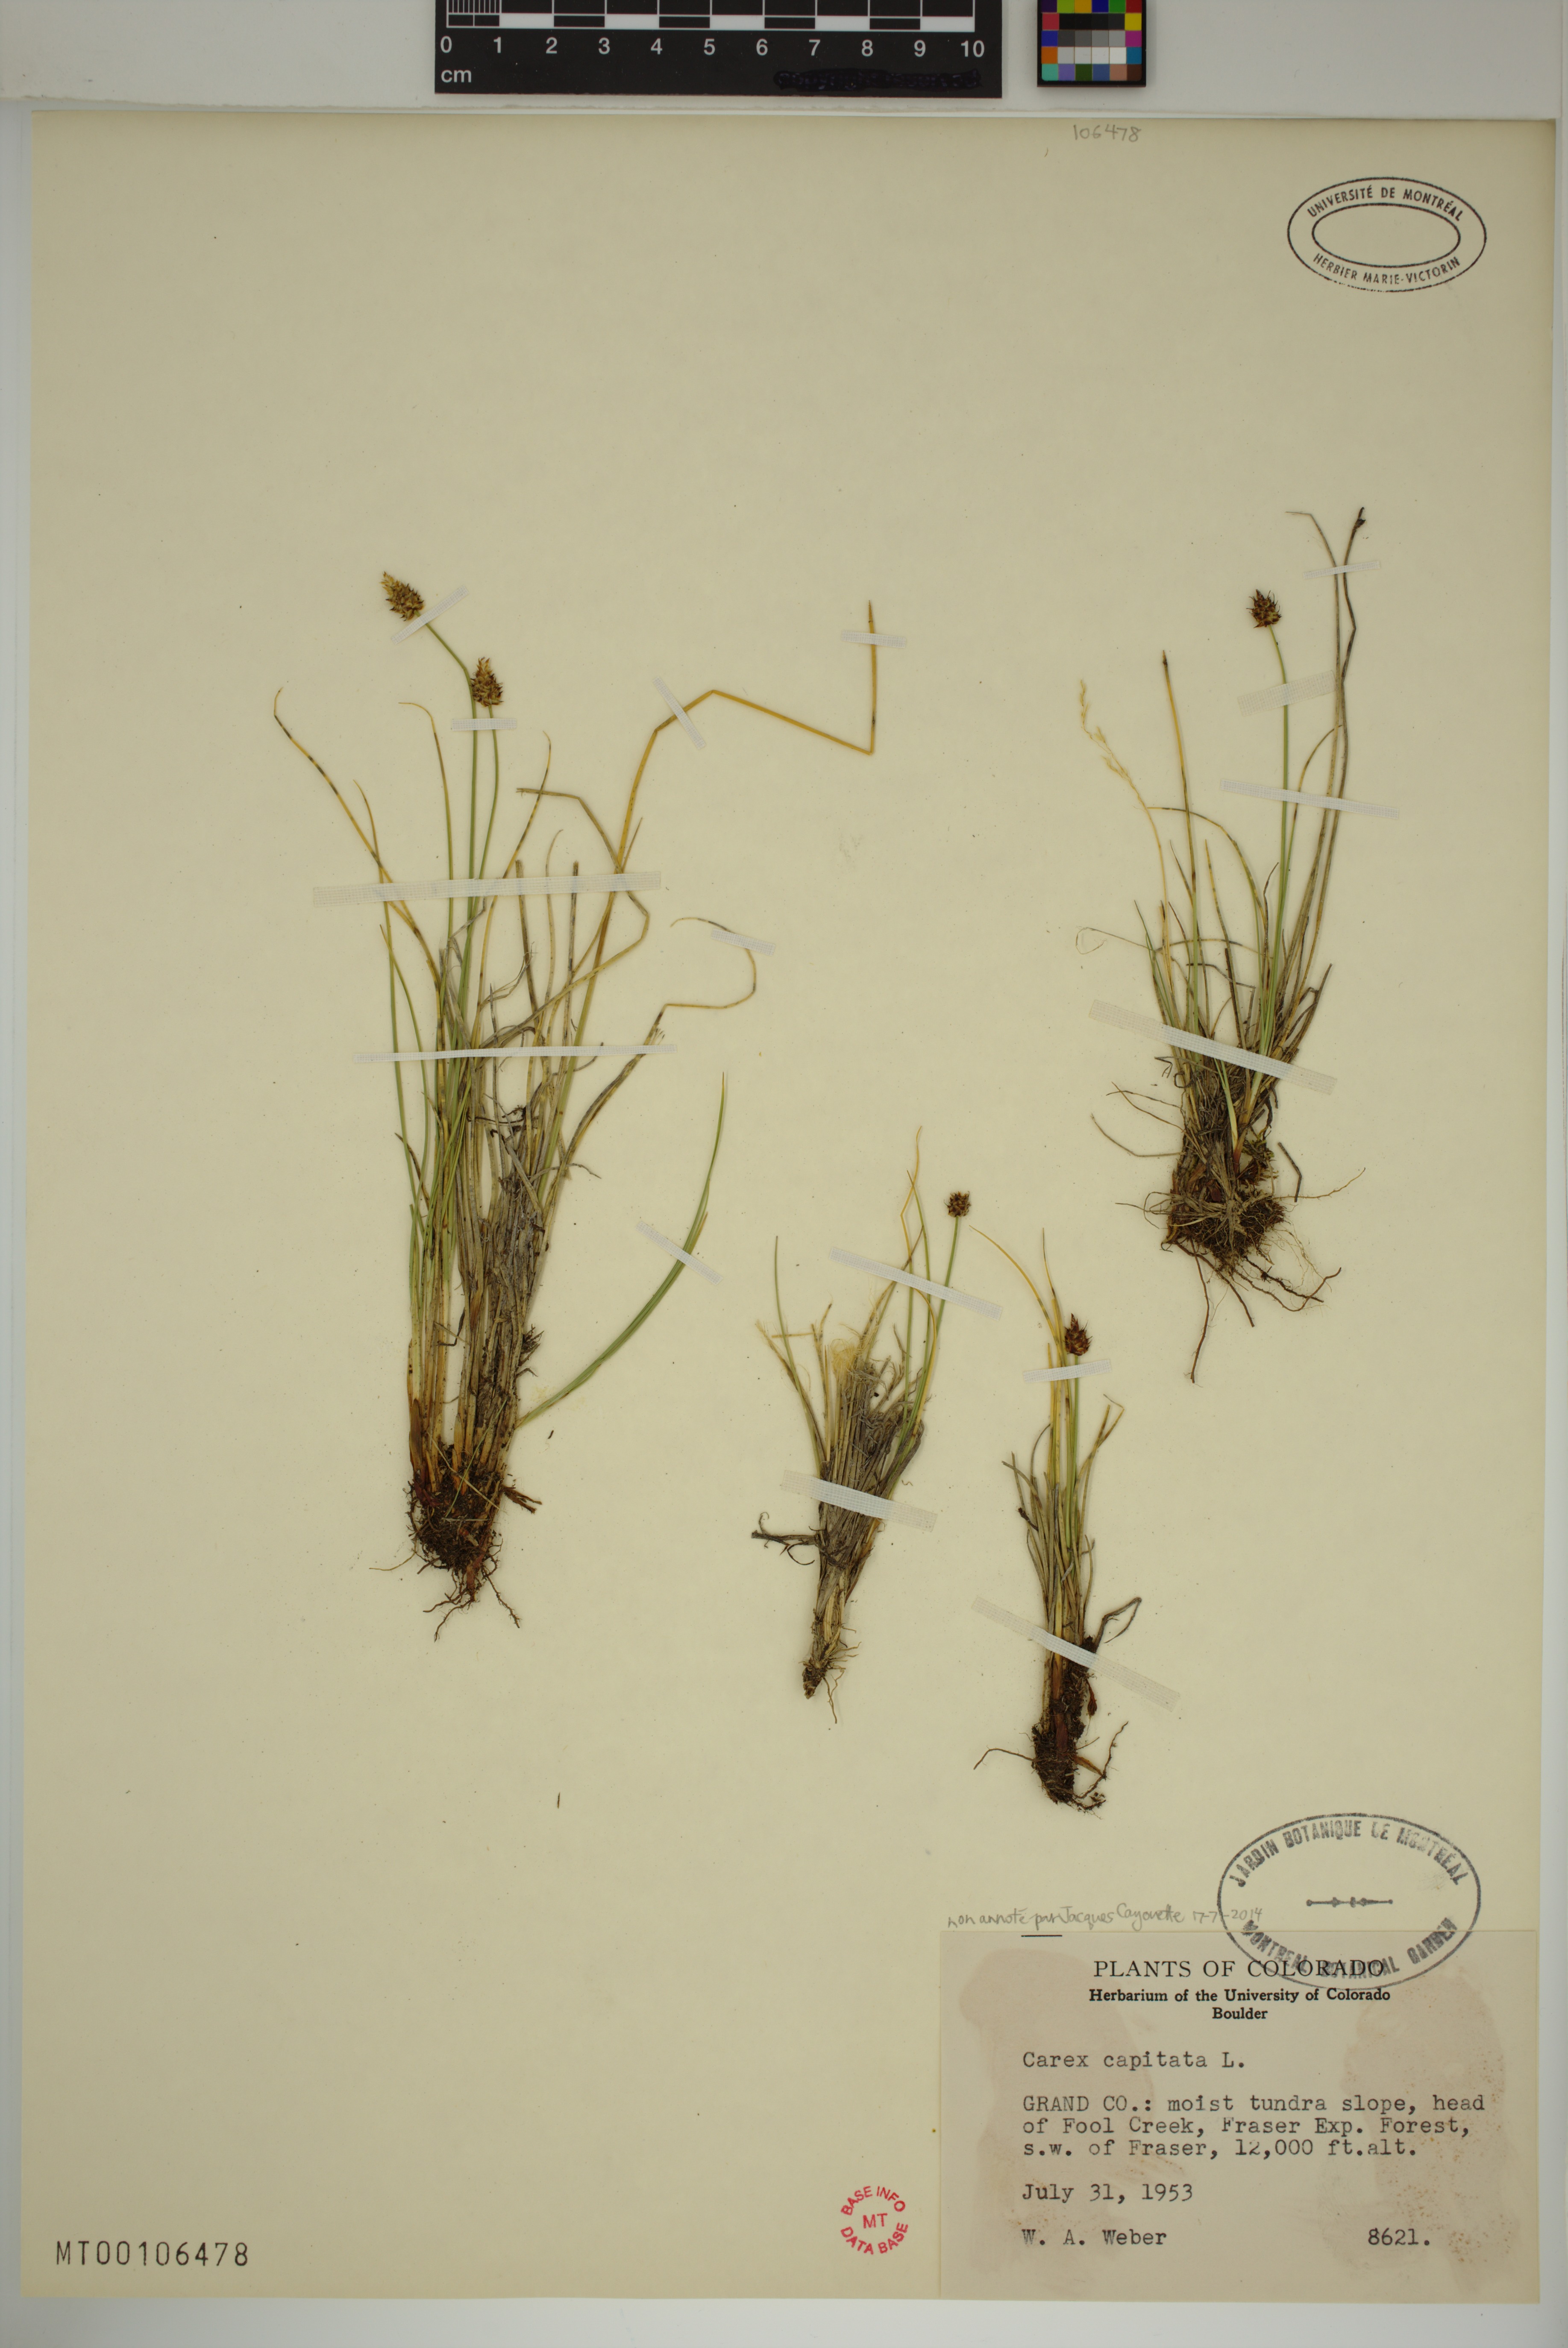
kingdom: Plantae
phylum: Tracheophyta
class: Liliopsida
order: Poales
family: Cyperaceae
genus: Carex
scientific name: Carex capitata
